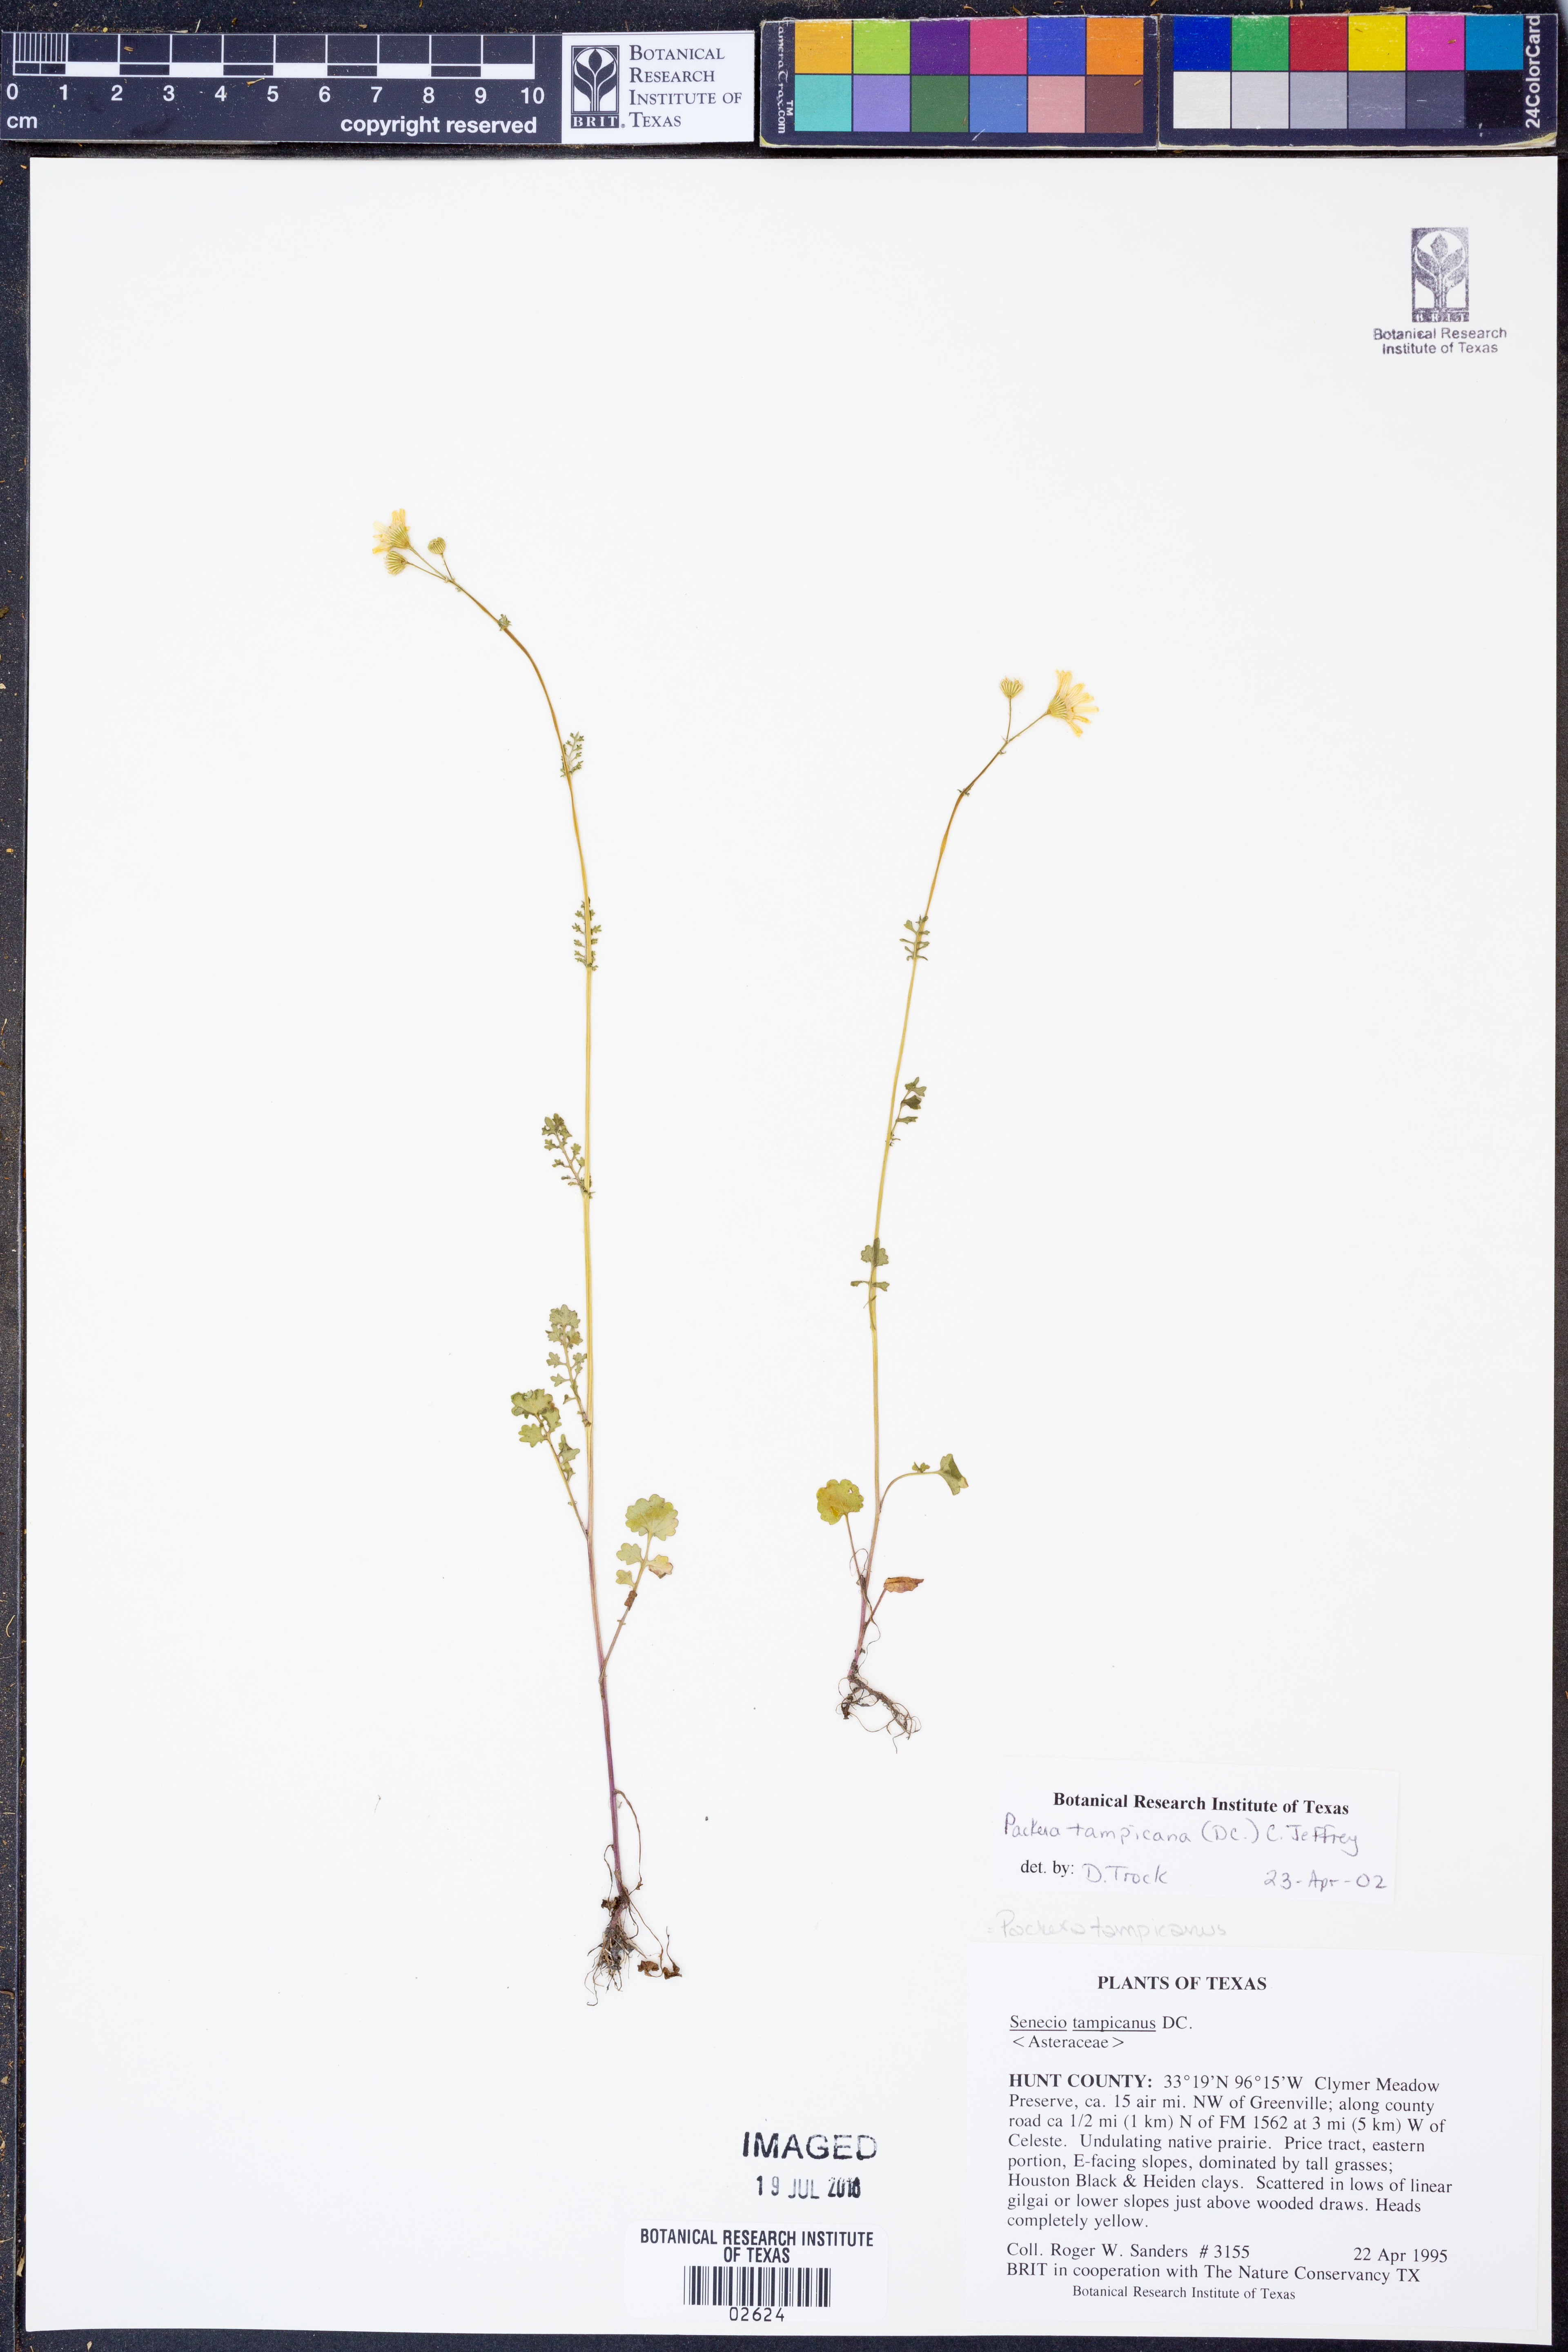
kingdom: Plantae
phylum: Tracheophyta
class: Magnoliopsida
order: Asterales
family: Asteraceae
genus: Packera
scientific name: Packera tampicana
